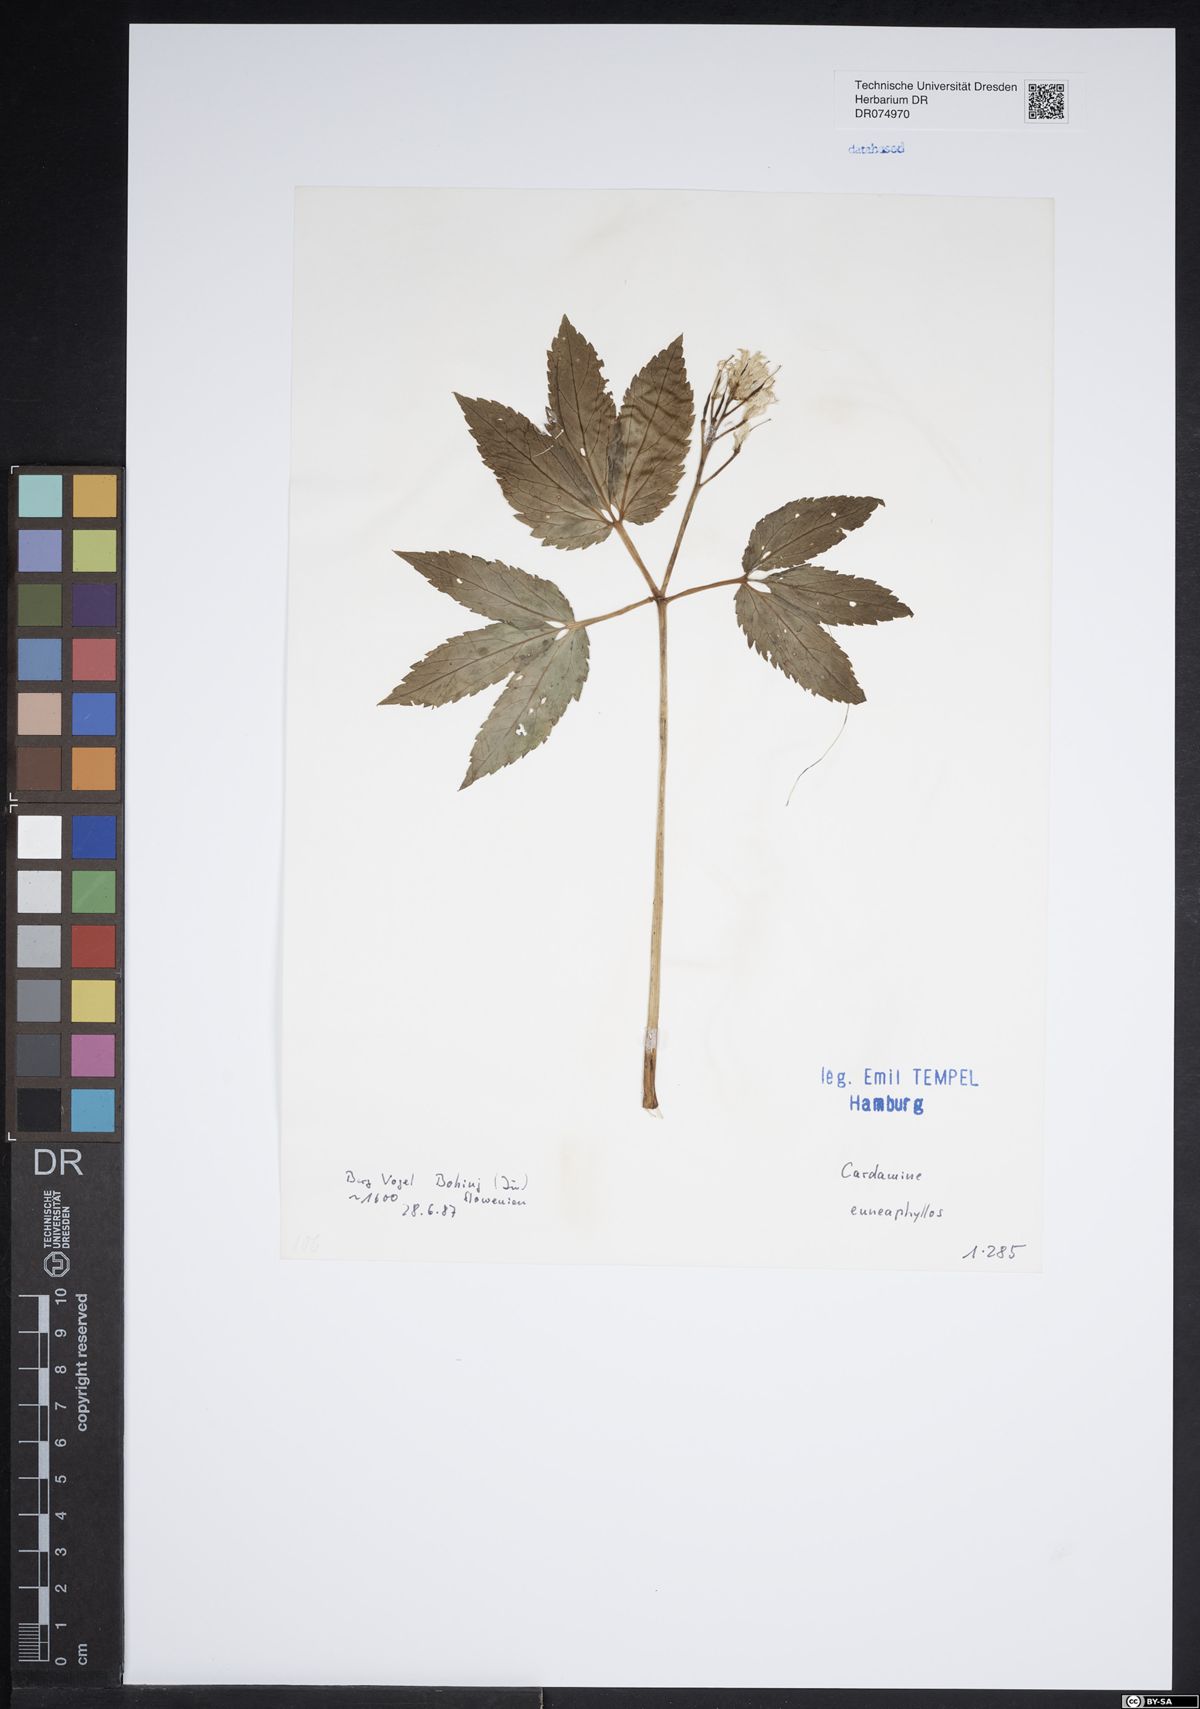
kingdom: Plantae
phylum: Tracheophyta
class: Magnoliopsida
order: Brassicales
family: Brassicaceae
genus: Cardamine
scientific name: Cardamine enneaphyllos
